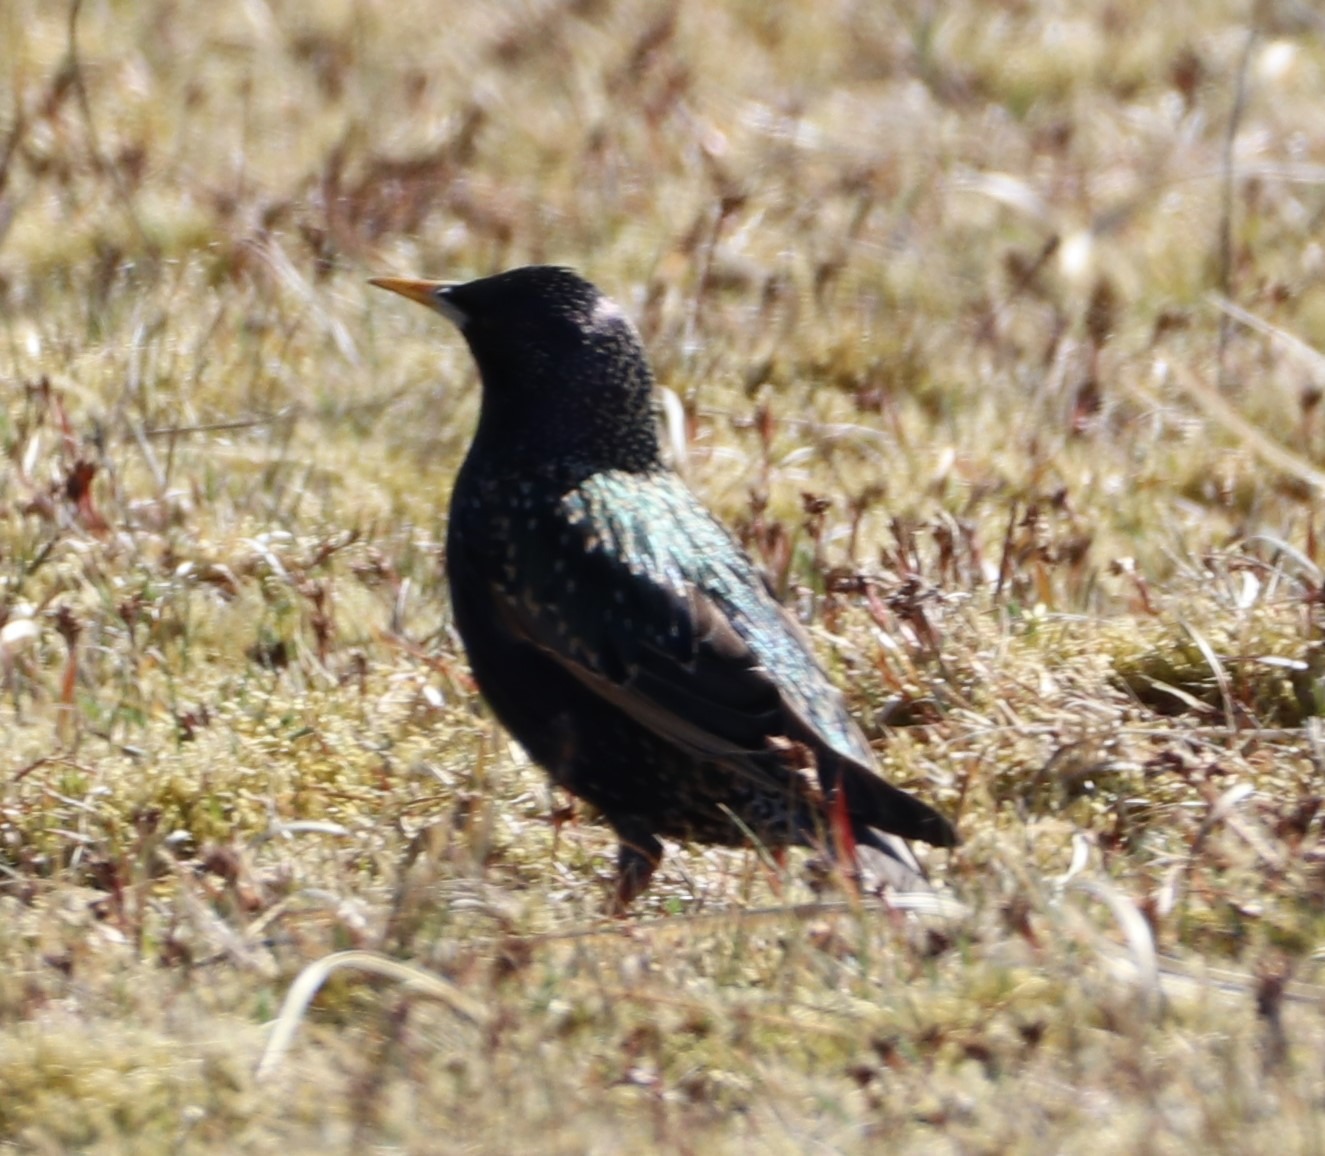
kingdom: Animalia
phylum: Chordata
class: Aves
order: Passeriformes
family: Sturnidae
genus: Sturnus
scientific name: Sturnus vulgaris
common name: Stær
